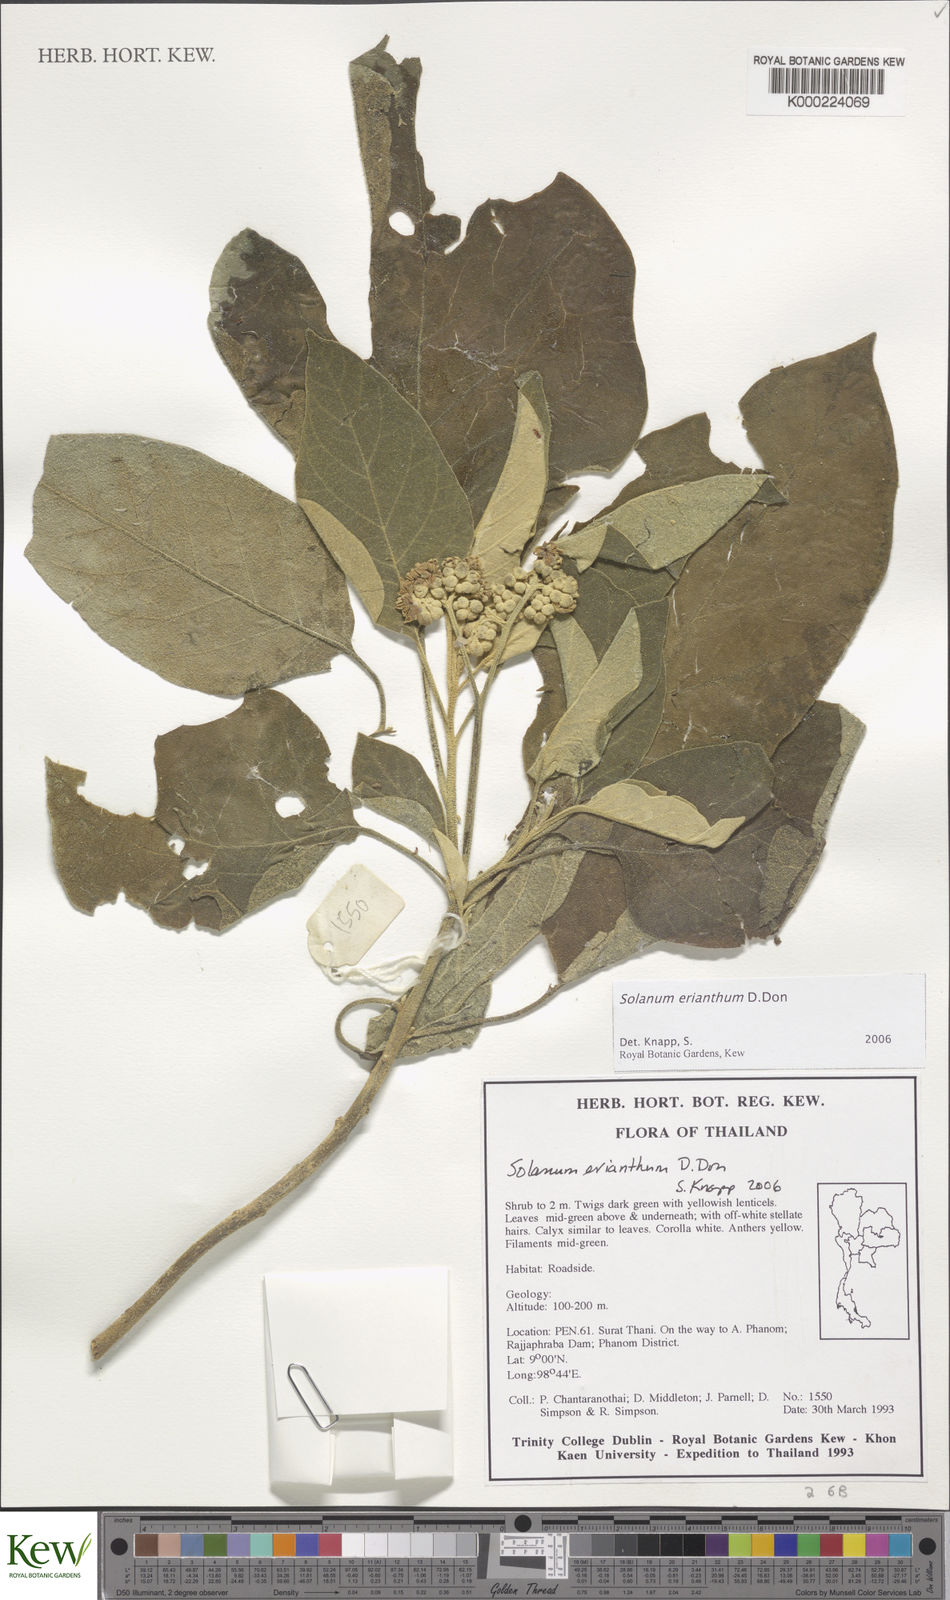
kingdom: Plantae
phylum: Tracheophyta
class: Magnoliopsida
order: Solanales
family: Solanaceae
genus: Solanum
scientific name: Solanum erianthum
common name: Tobacco-tree
